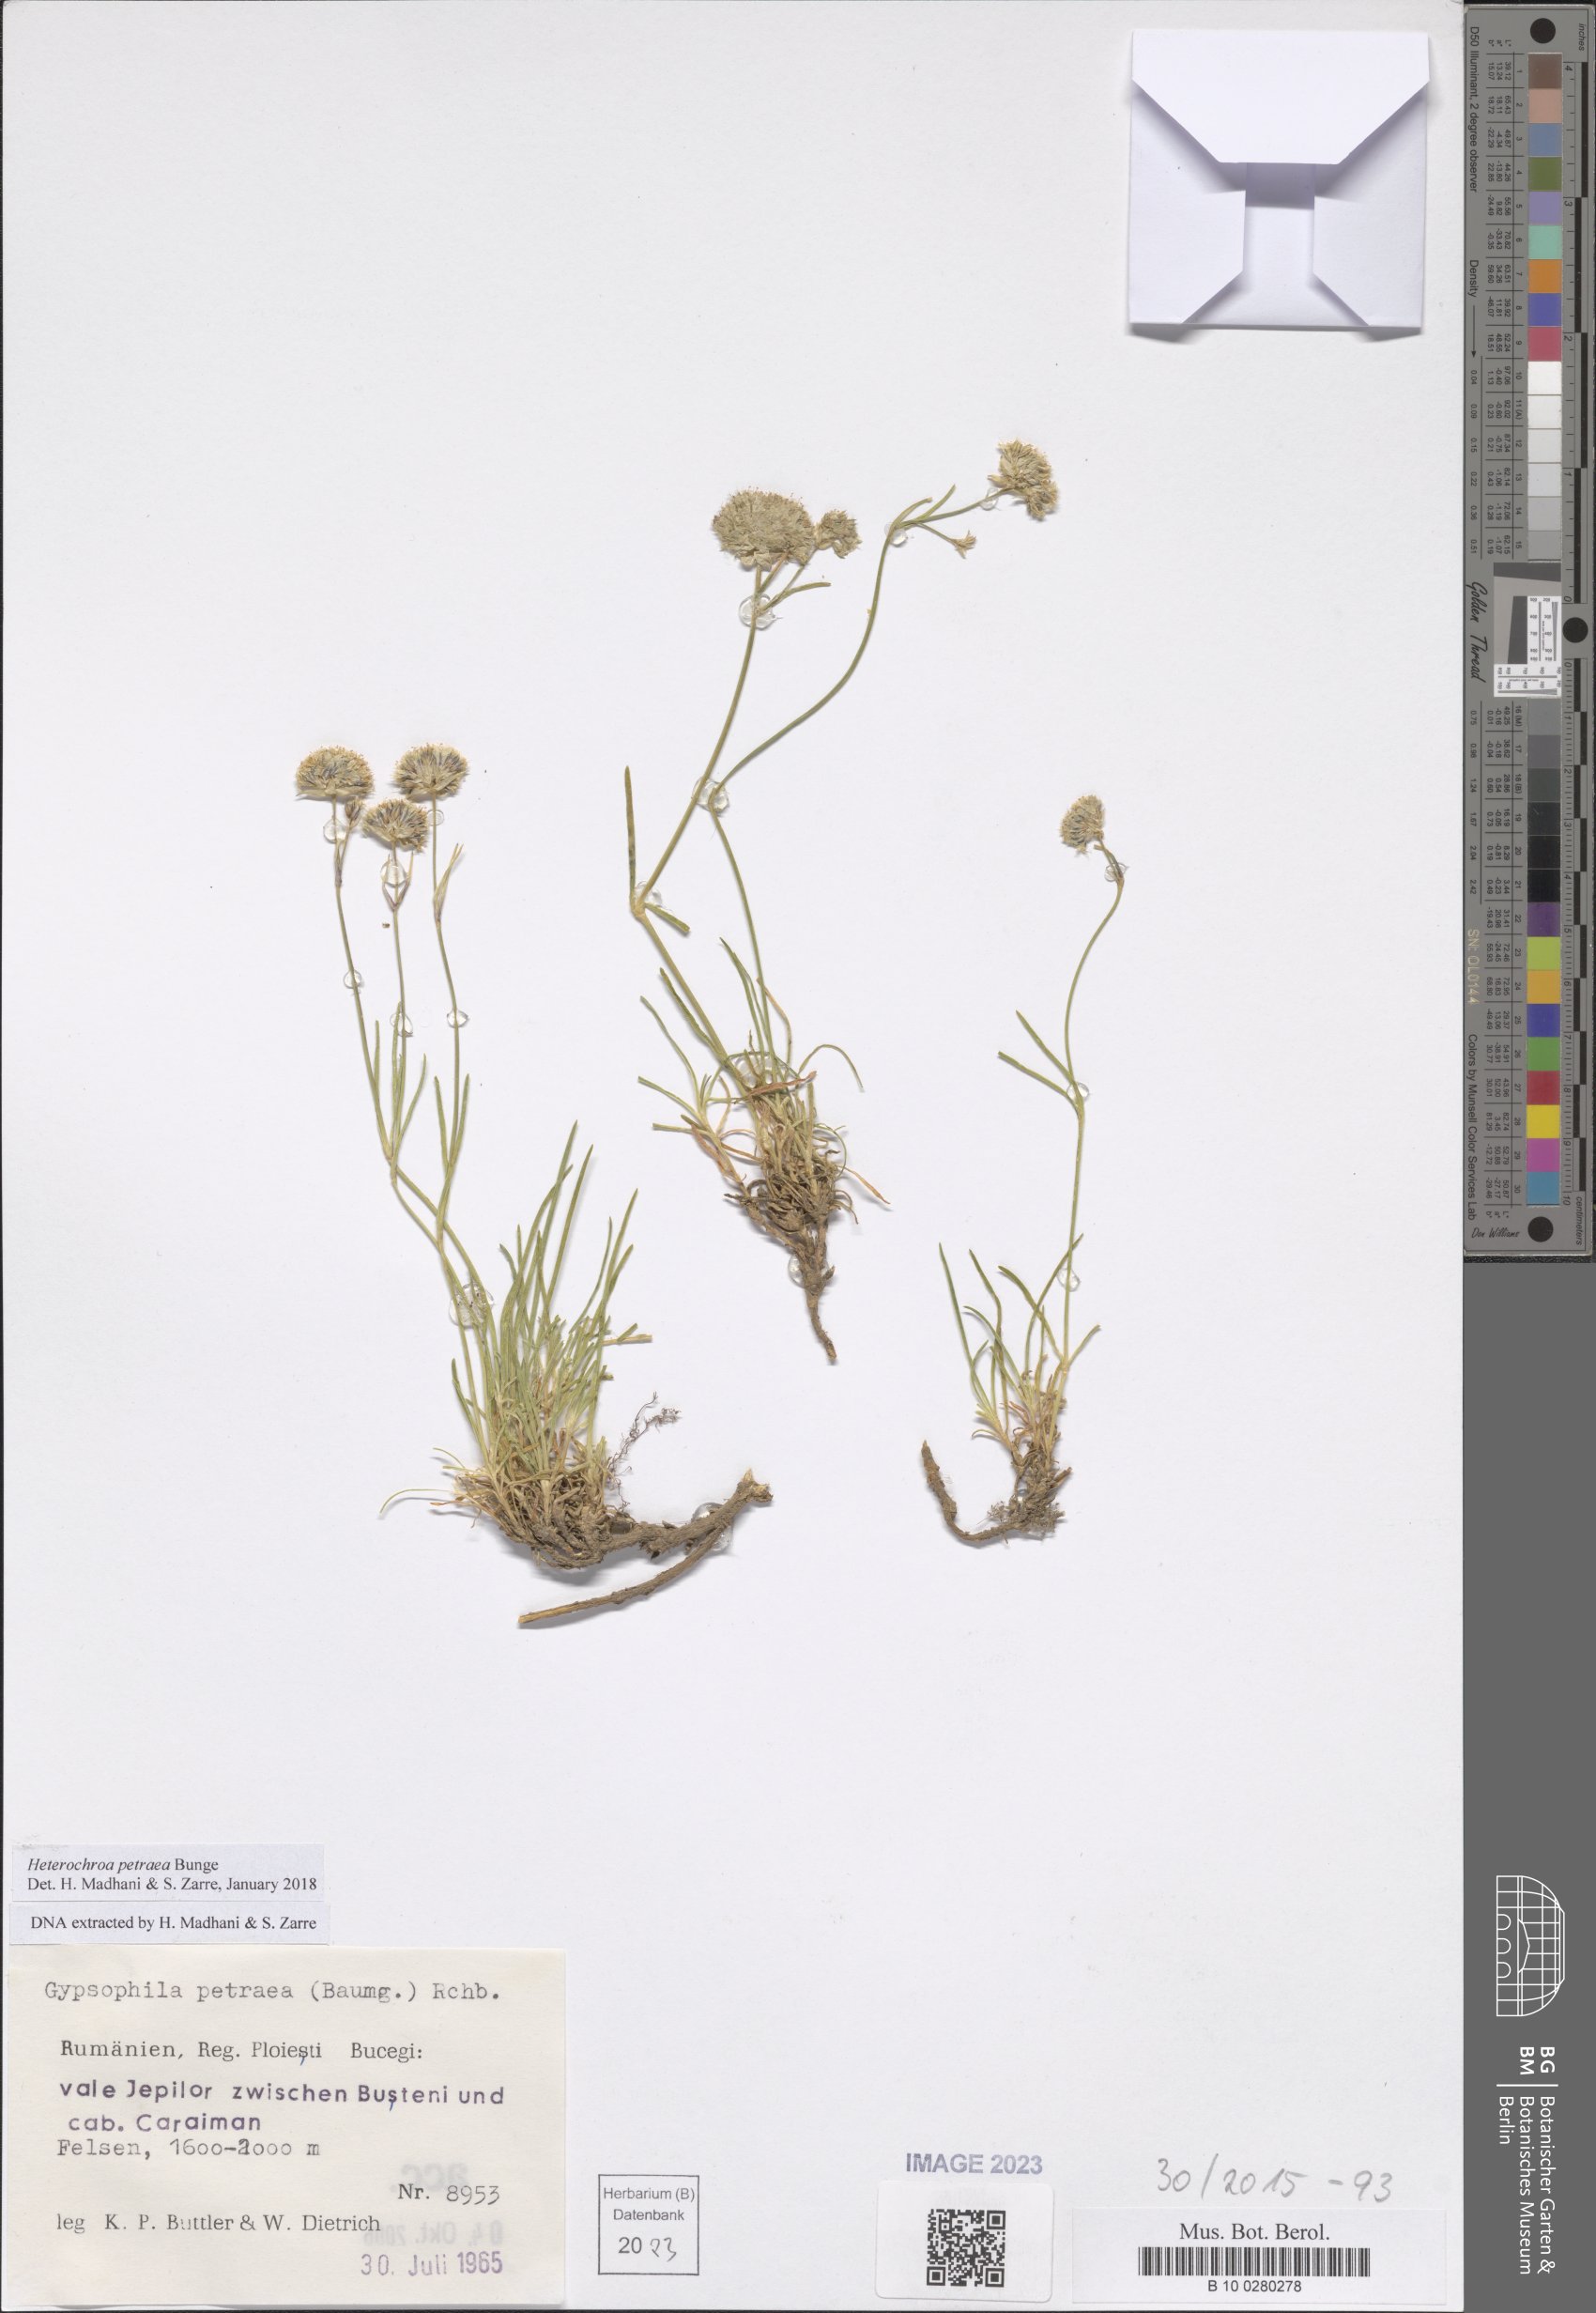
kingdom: Plantae
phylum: Tracheophyta
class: Magnoliopsida
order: Caryophyllales
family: Caryophyllaceae
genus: Heterochroa
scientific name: Heterochroa petraea
